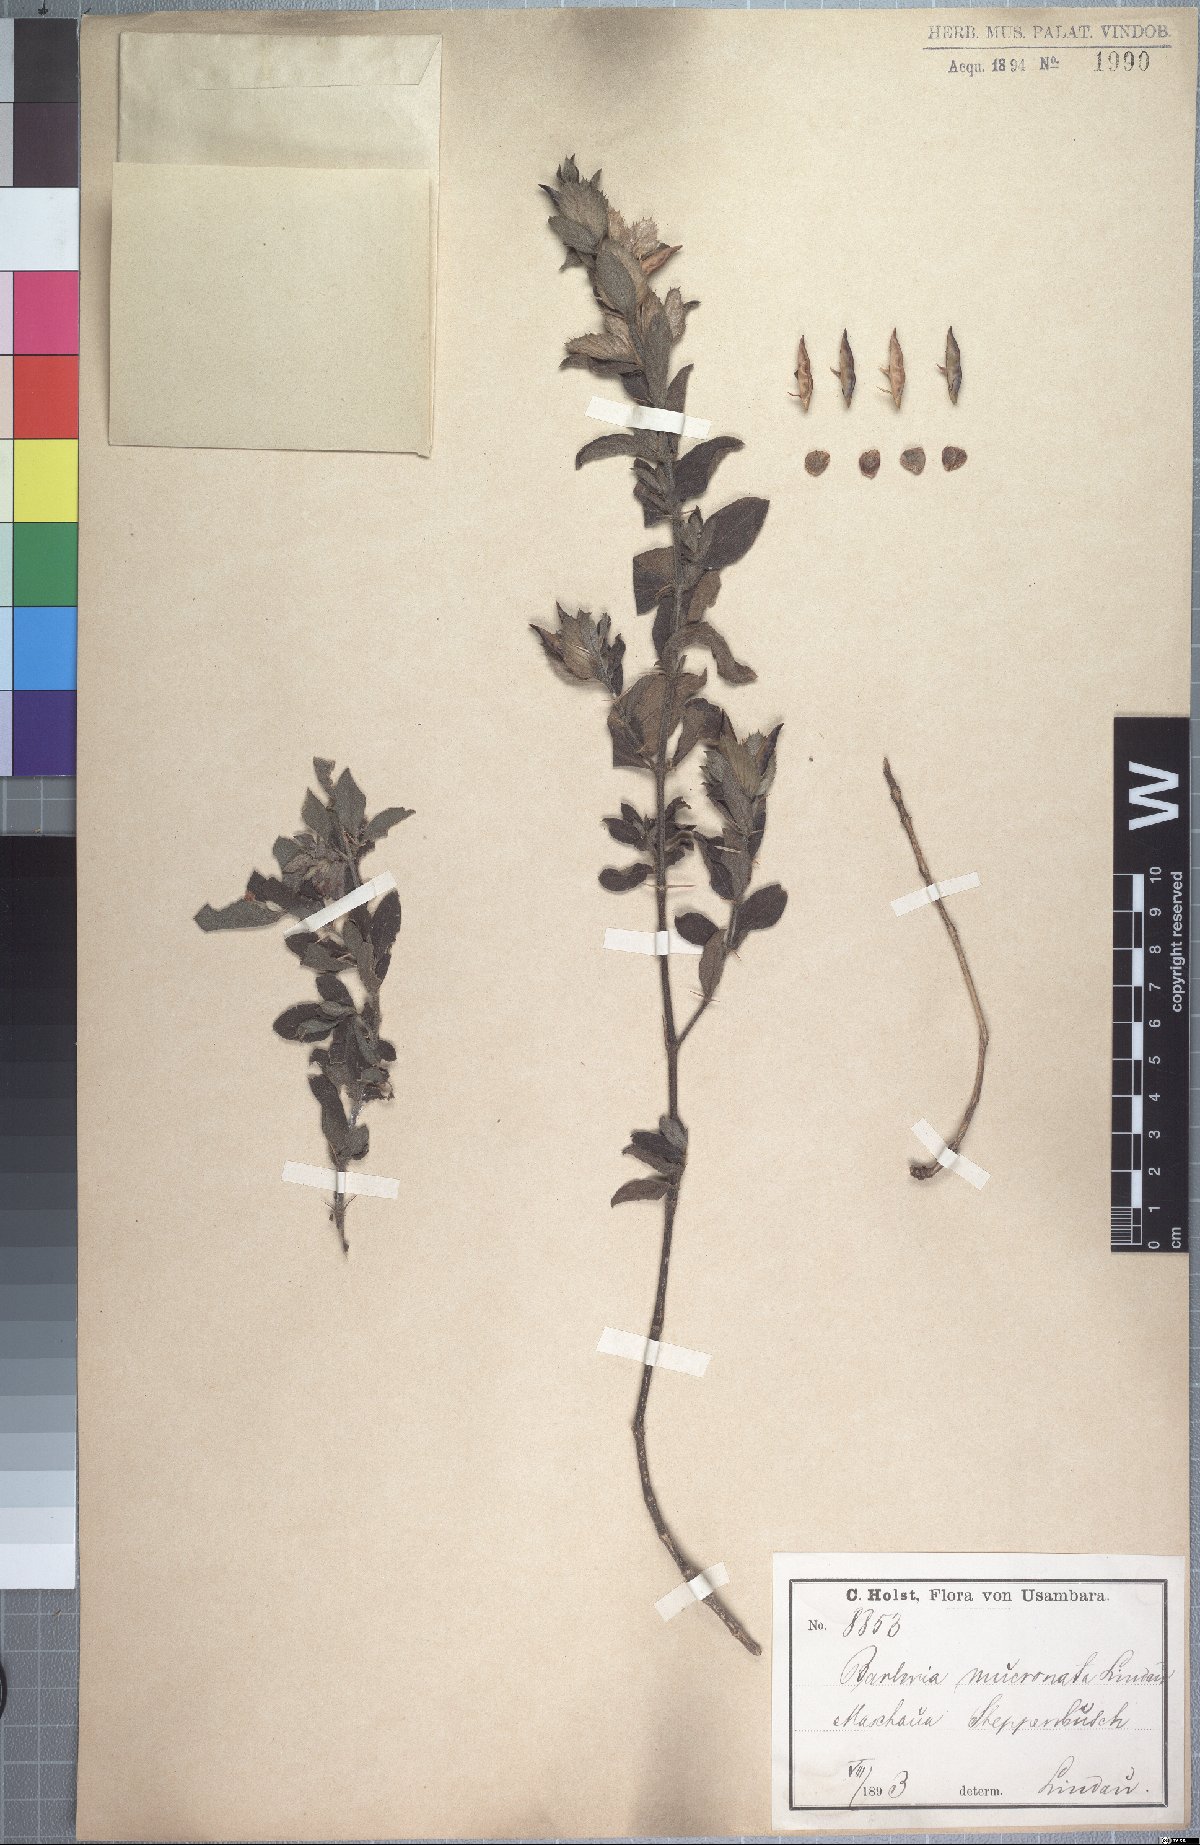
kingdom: Plantae
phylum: Tracheophyta
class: Magnoliopsida
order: Lamiales
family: Acanthaceae
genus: Barleria
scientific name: Barleria grandicalyx
